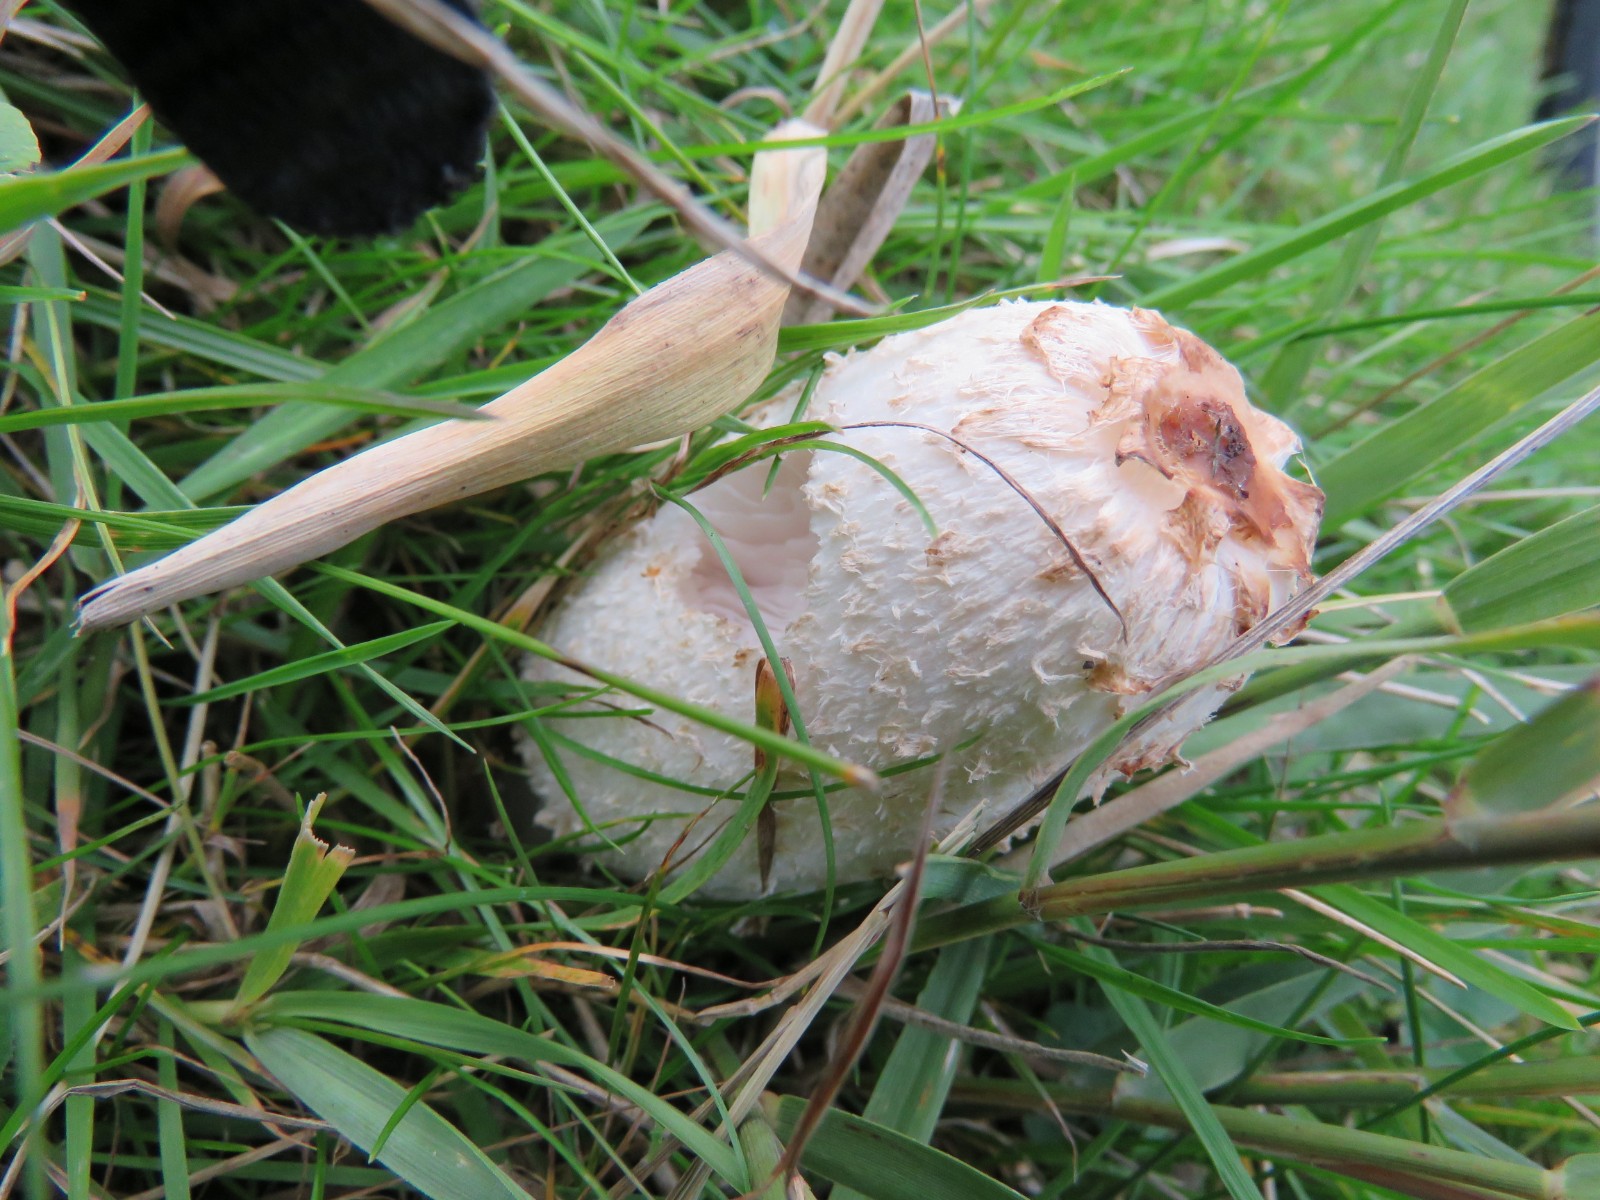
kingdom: Fungi
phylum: Basidiomycota
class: Agaricomycetes
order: Agaricales
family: Agaricaceae
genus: Coprinus
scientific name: Coprinus comatus
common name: stor parykhat
